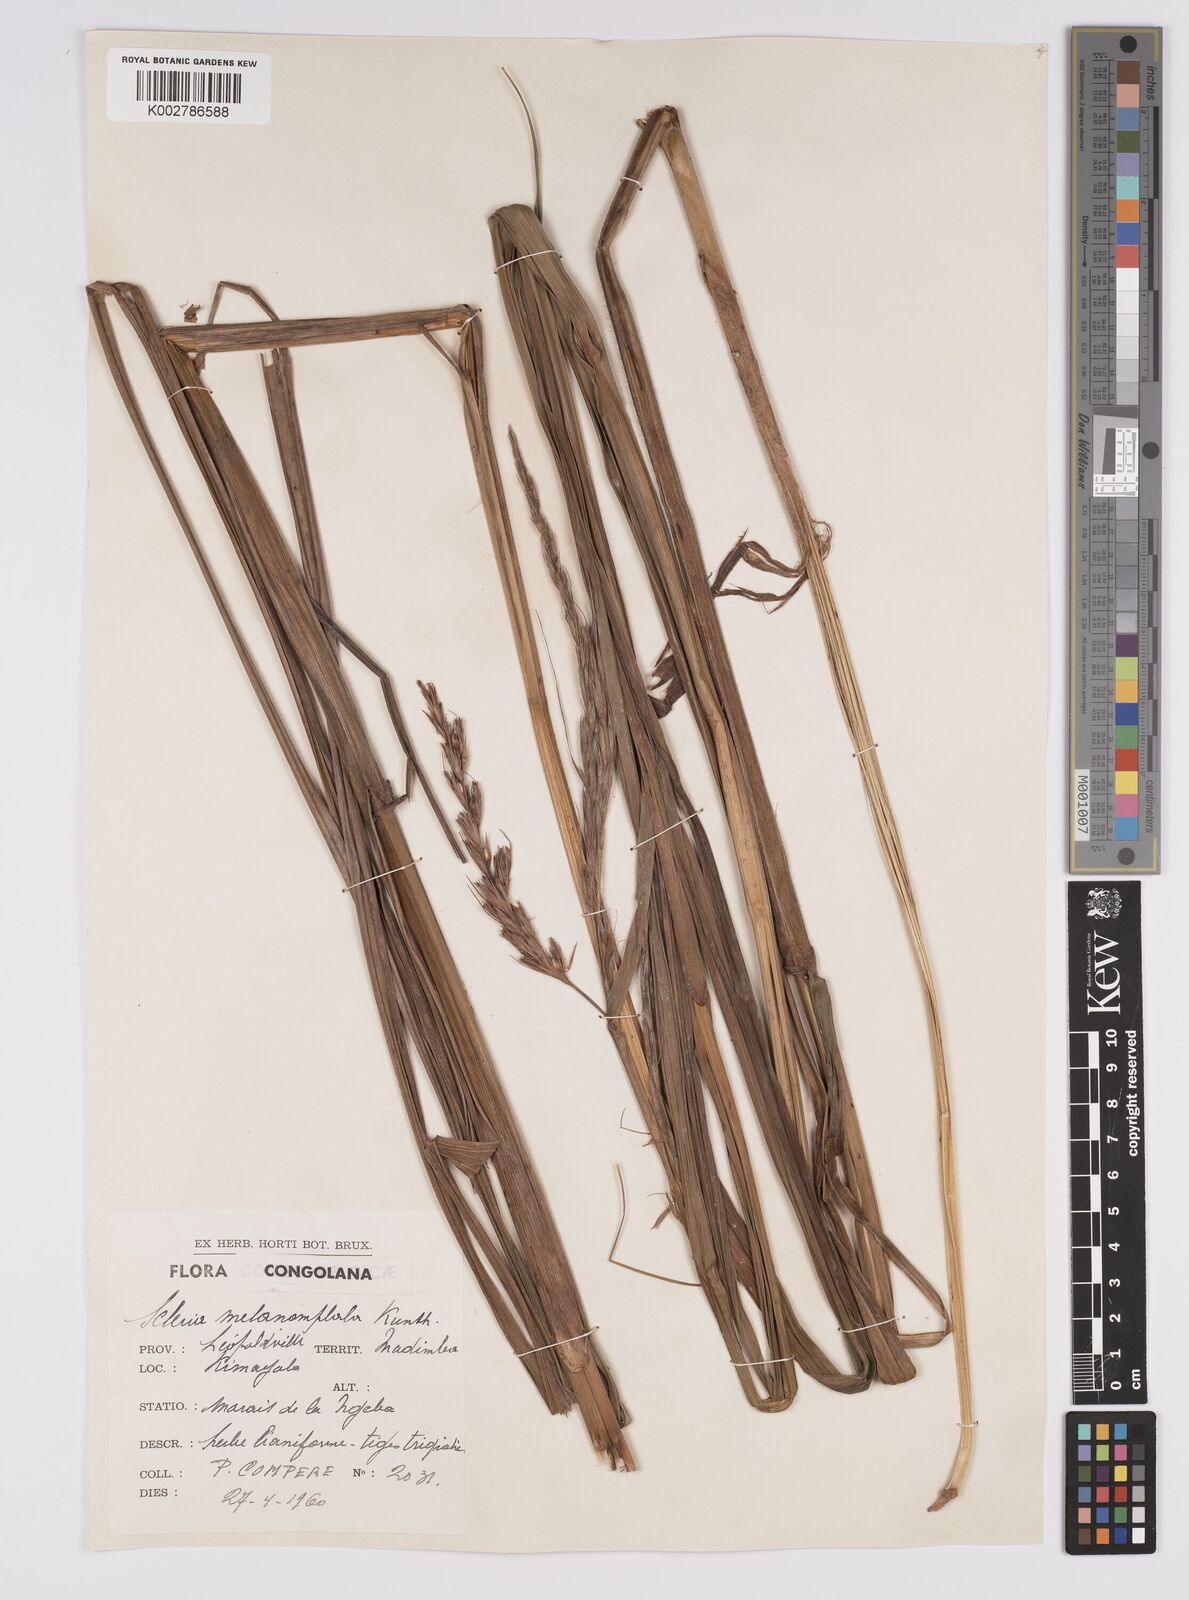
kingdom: Plantae
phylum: Tracheophyta
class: Liliopsida
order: Poales
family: Cyperaceae
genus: Scleria
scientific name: Scleria melanomphala
